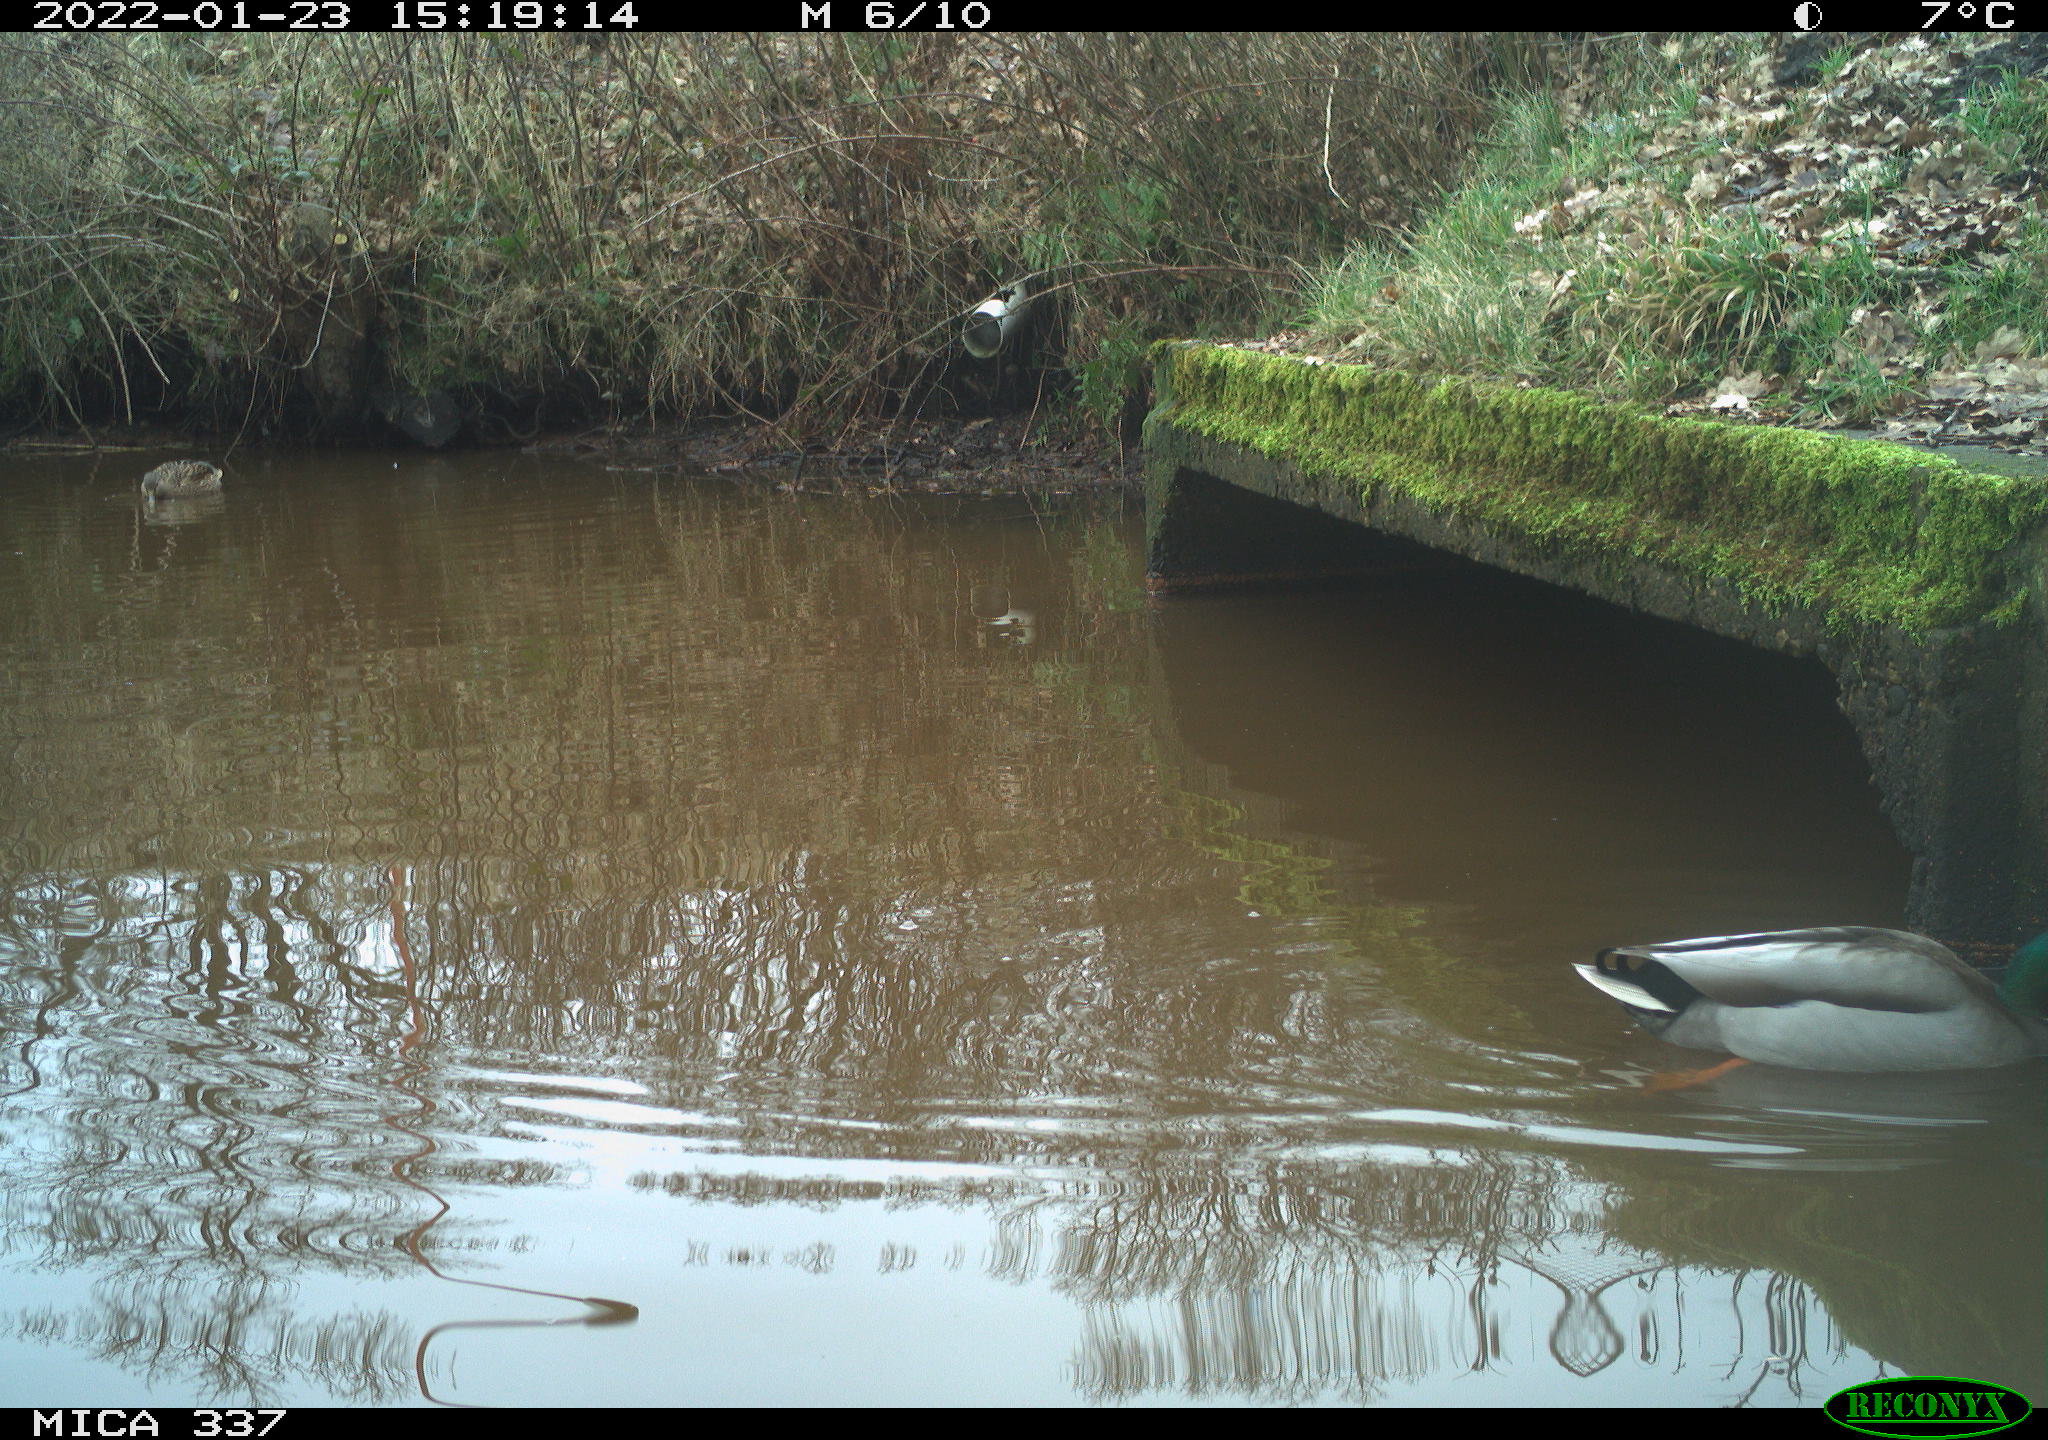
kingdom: Animalia
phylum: Chordata
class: Aves
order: Anseriformes
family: Anatidae
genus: Anas
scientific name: Anas platyrhynchos
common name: Mallard
